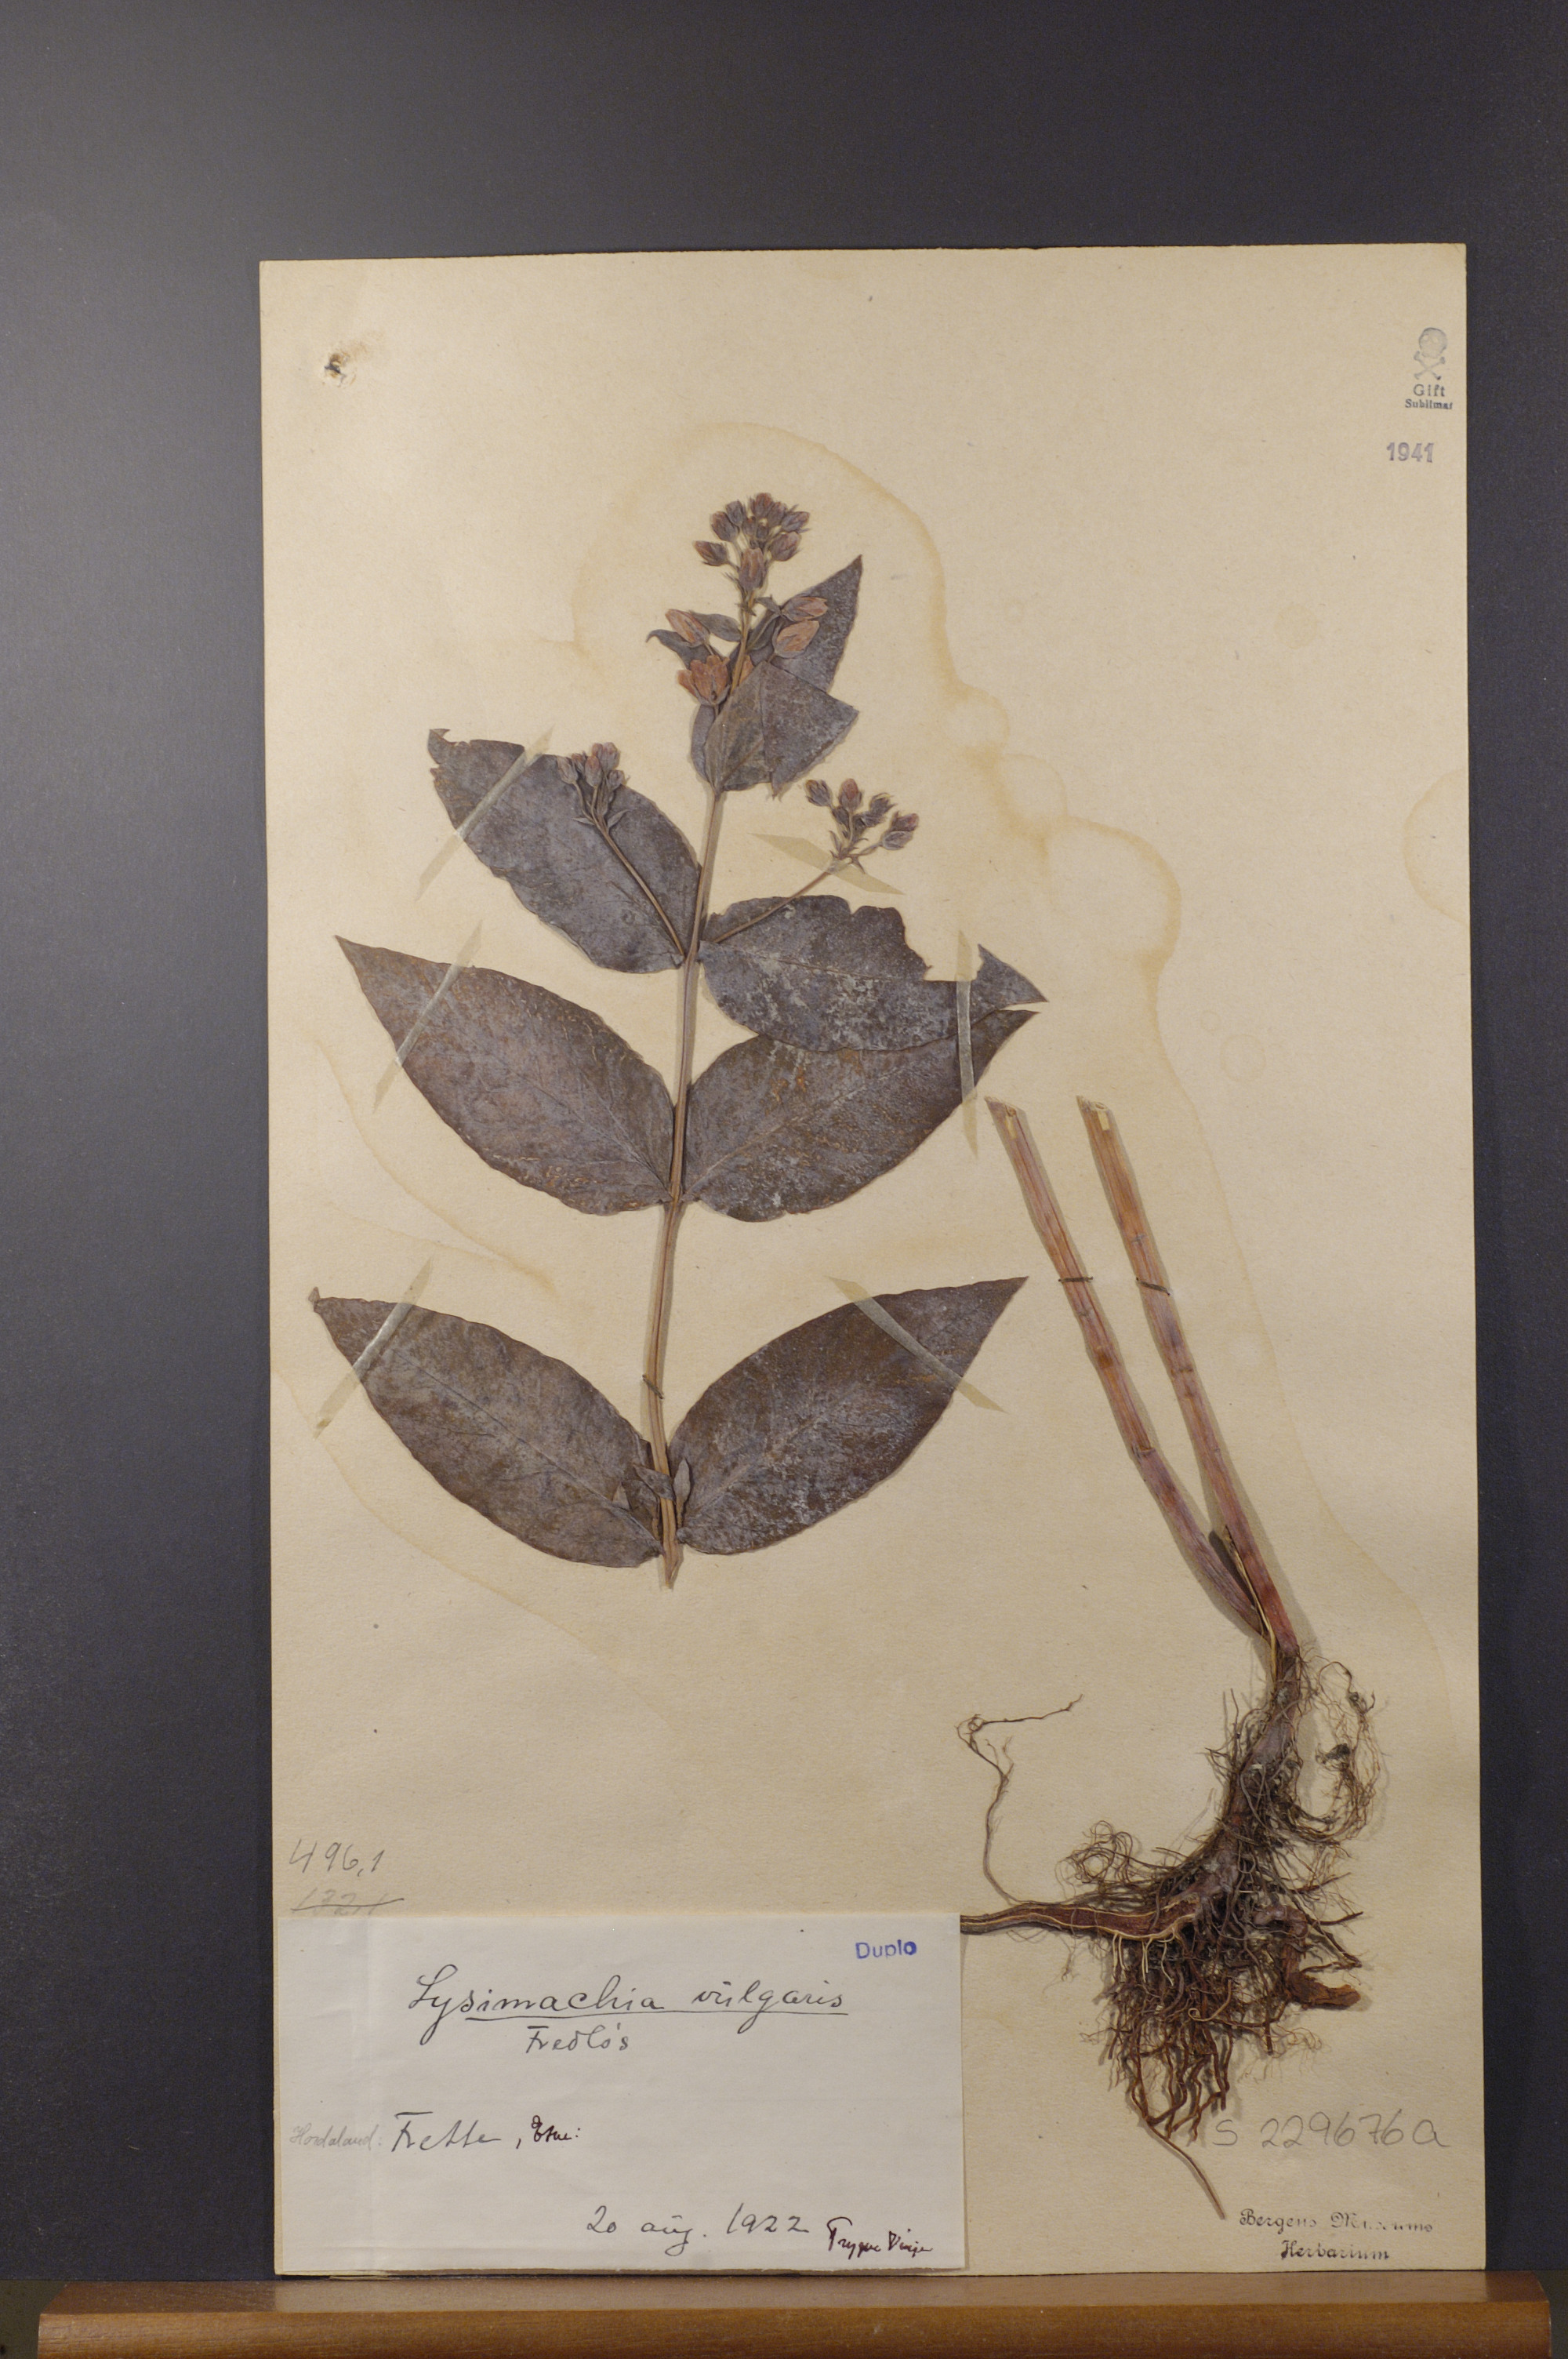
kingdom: Plantae
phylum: Tracheophyta
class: Magnoliopsida
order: Ericales
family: Primulaceae
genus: Lysimachia
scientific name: Lysimachia vulgaris
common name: Yellow loosestrife
